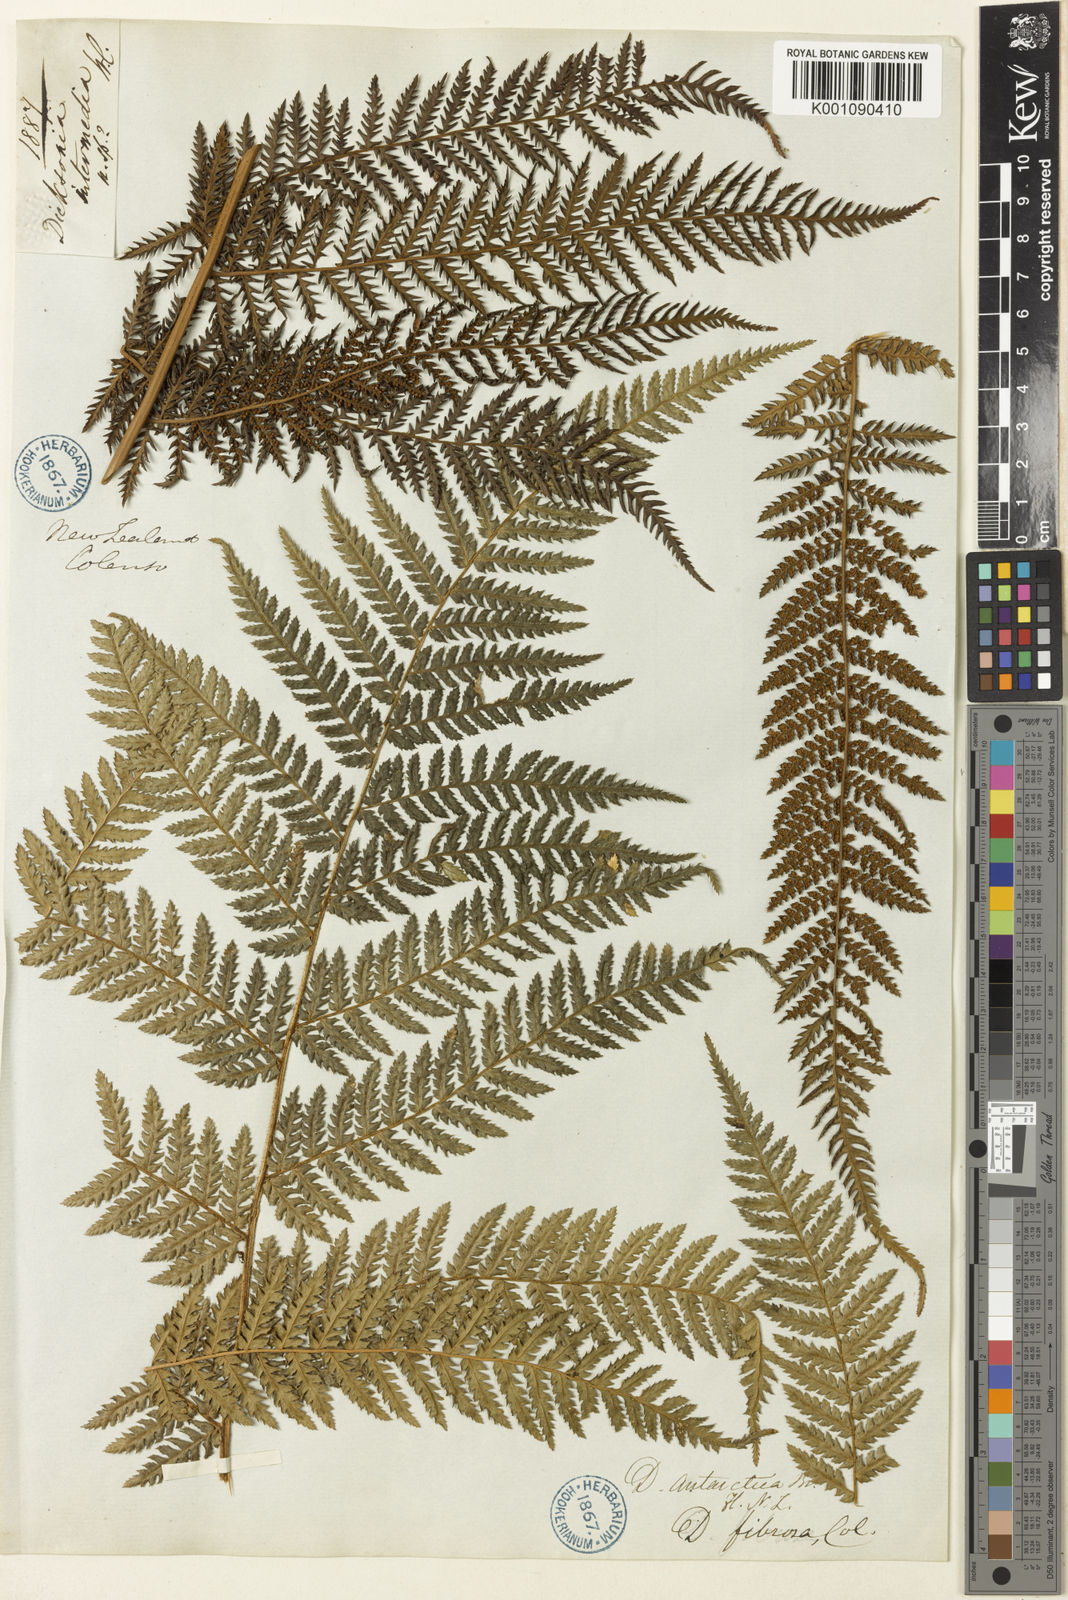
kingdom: Plantae
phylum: Tracheophyta
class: Polypodiopsida
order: Cyatheales
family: Dicksoniaceae
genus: Dicksonia
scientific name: Dicksonia fibrosa
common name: Golden tree fern
